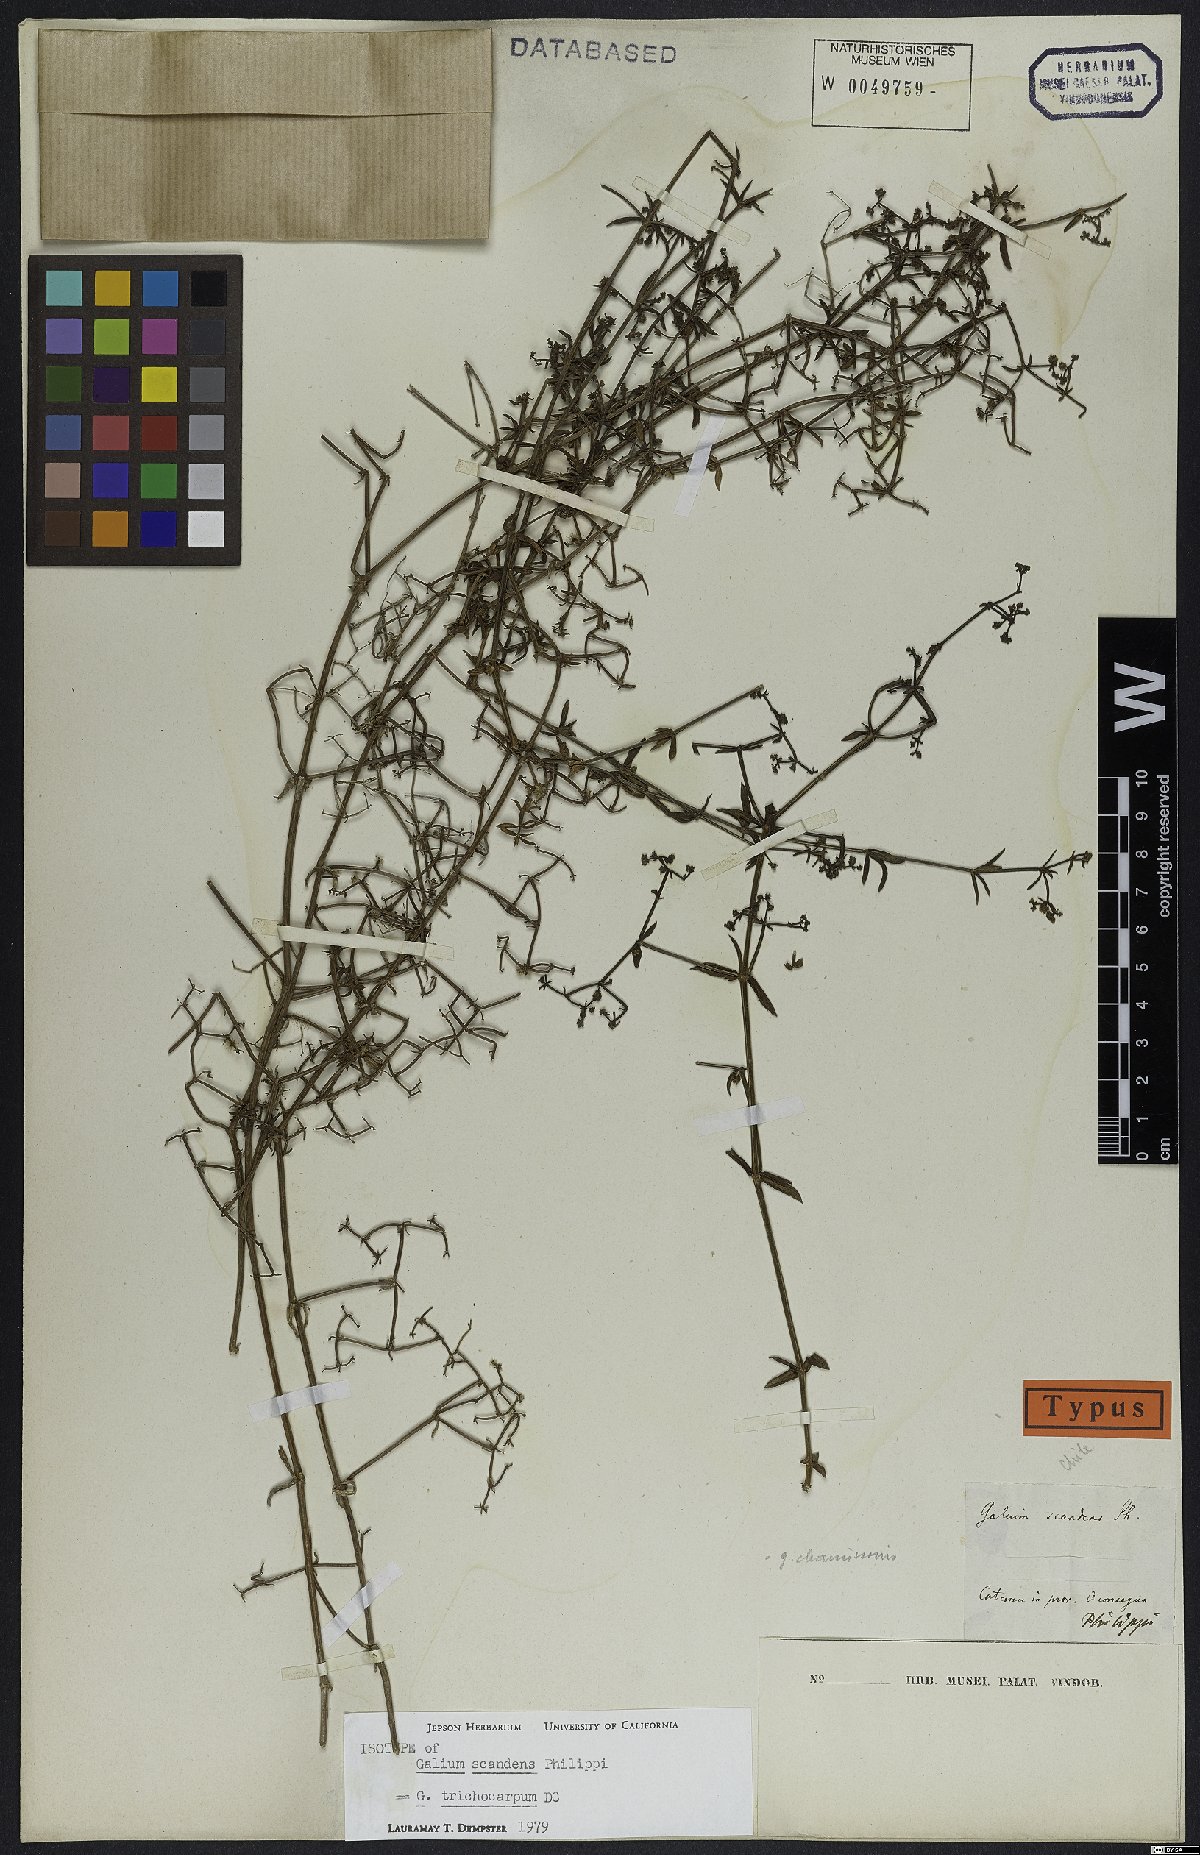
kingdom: Plantae
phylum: Tracheophyta
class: Magnoliopsida
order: Gentianales
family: Rubiaceae
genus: Galium
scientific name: Galium trichocarpum
